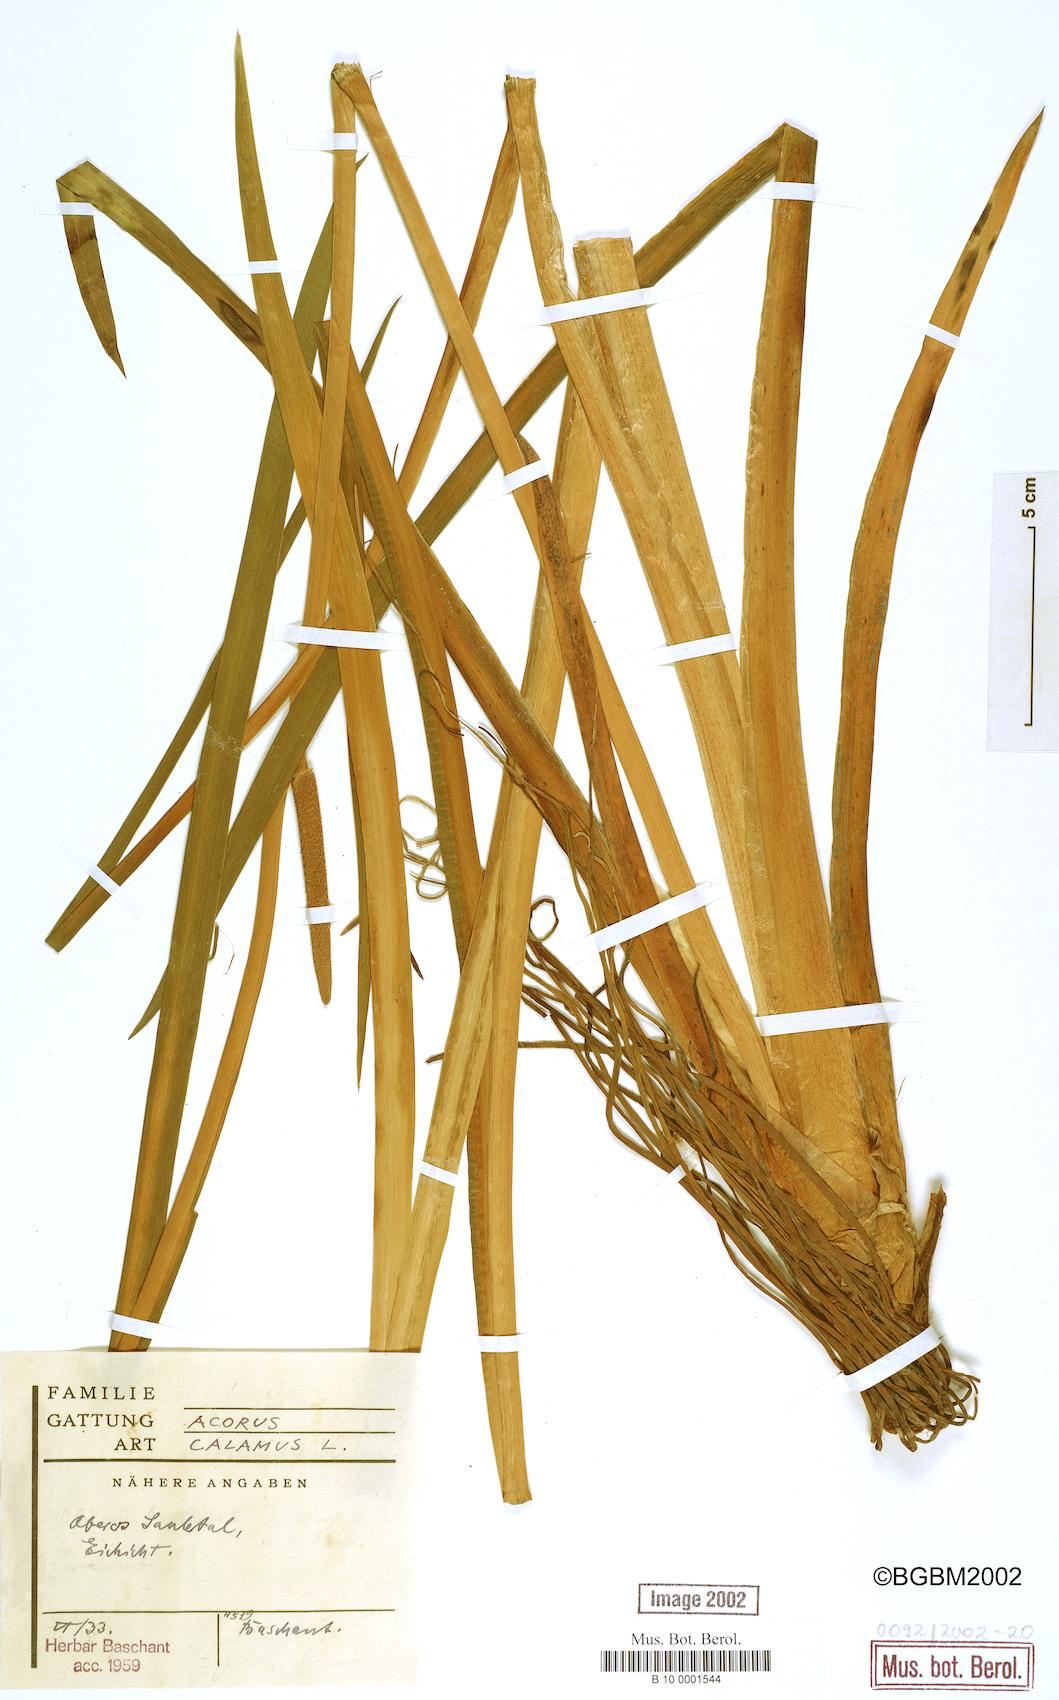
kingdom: Plantae
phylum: Tracheophyta
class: Liliopsida
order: Acorales
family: Acoraceae
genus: Acorus
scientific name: Acorus calamus
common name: Sweet-flag
